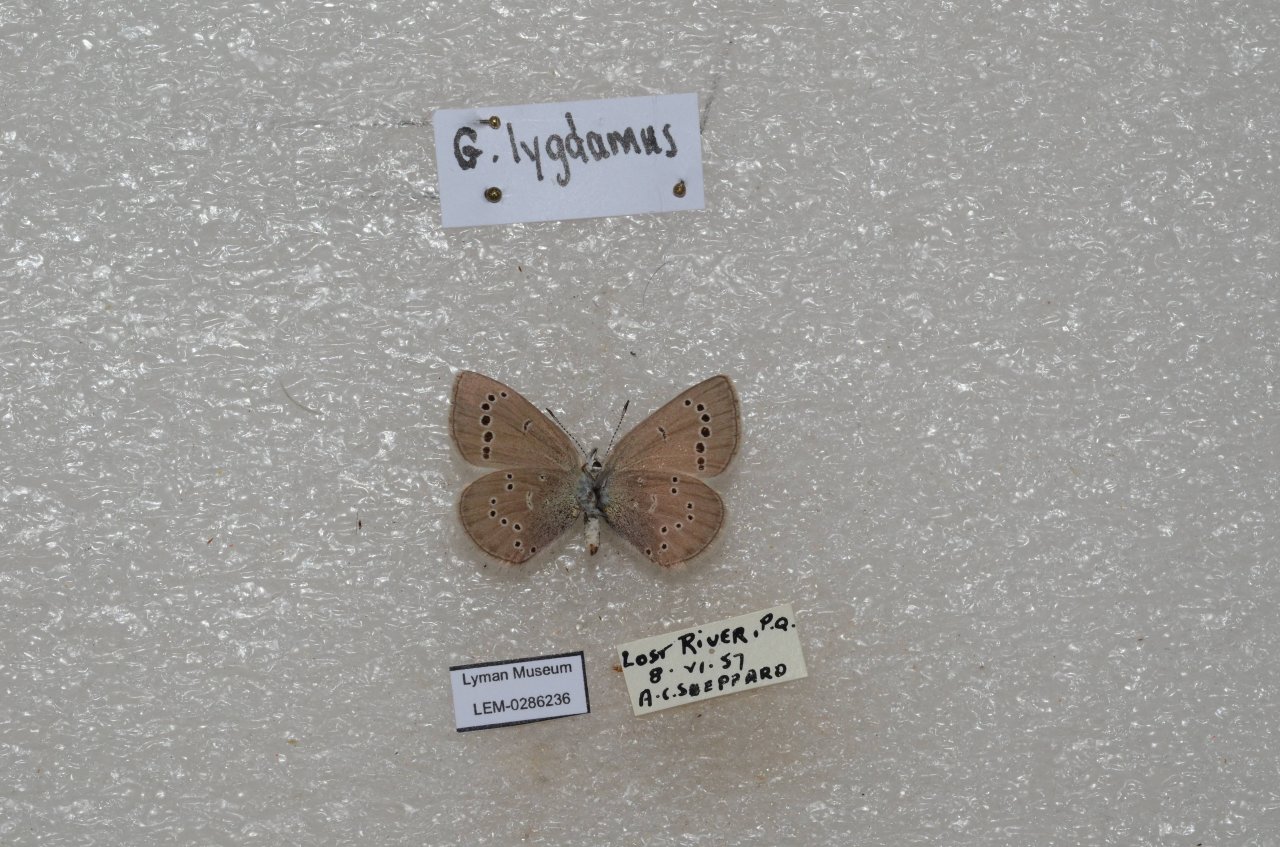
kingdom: Animalia
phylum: Arthropoda
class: Insecta
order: Lepidoptera
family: Lycaenidae
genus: Glaucopsyche
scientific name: Glaucopsyche lygdamus
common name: Silvery Blue
